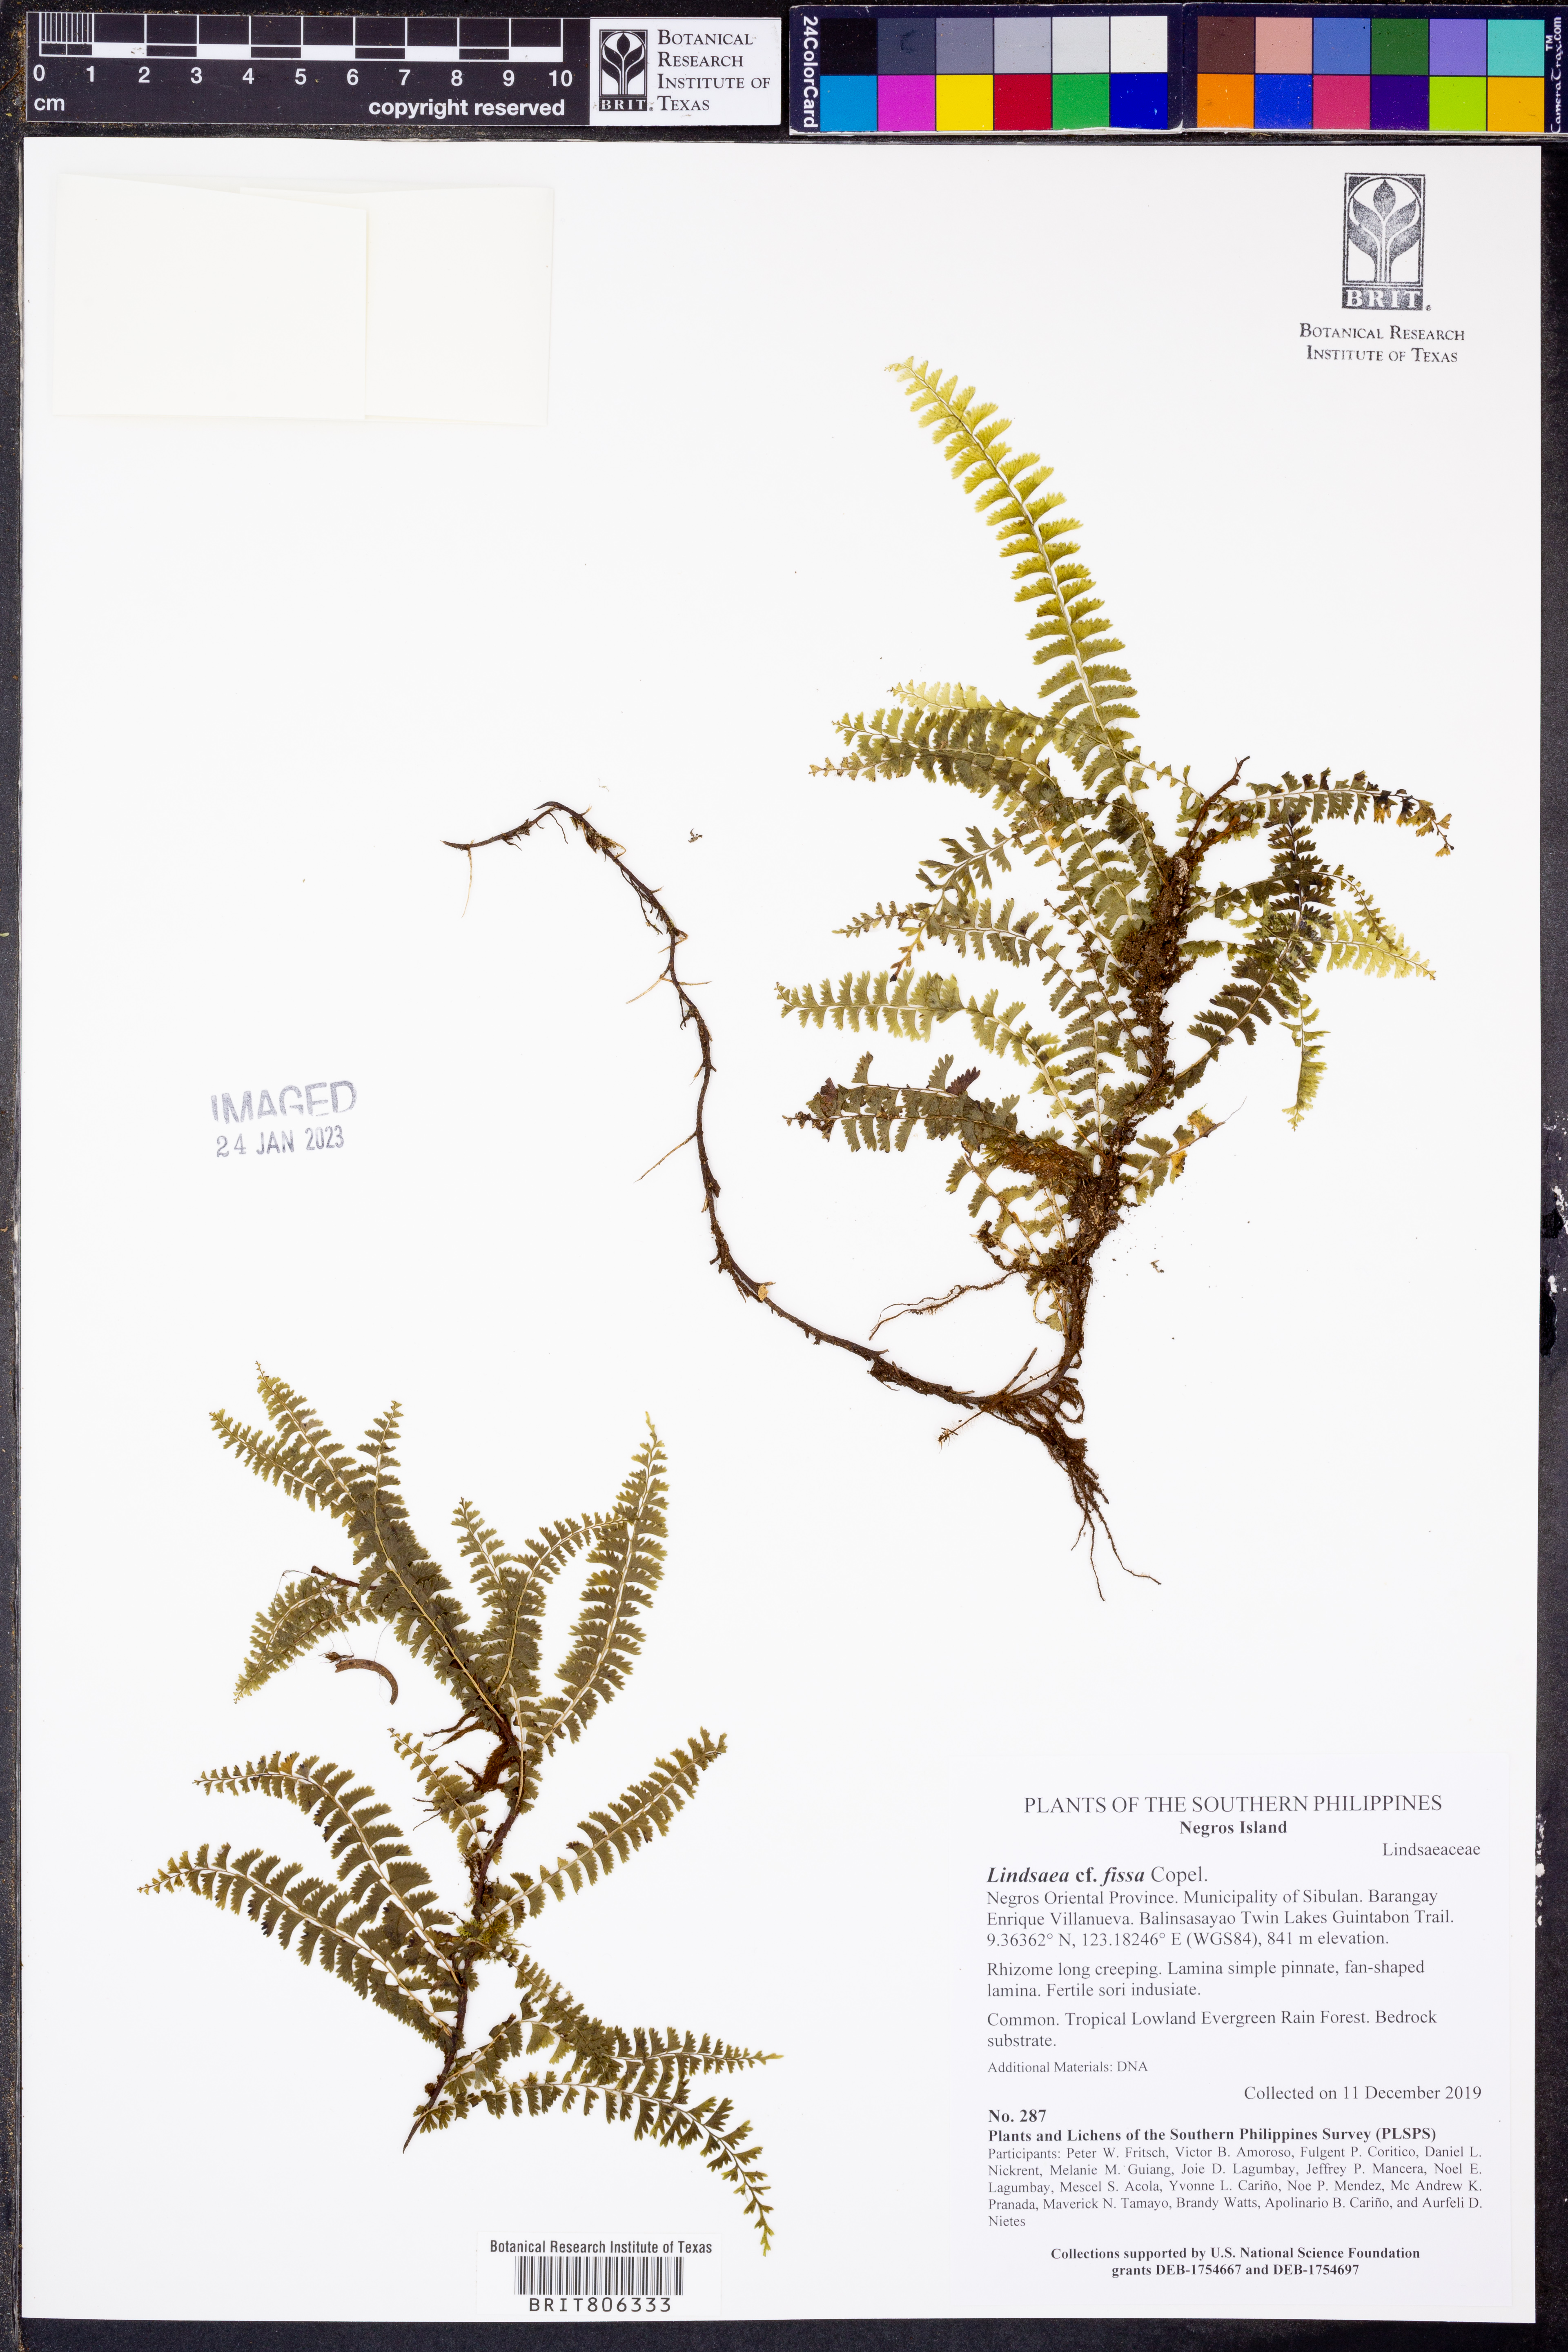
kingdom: Plantae
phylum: Tracheophyta
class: Polypodiopsida
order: Polypodiales
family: Lindsaeaceae
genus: Lindsaea
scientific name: Lindsaea fissa
